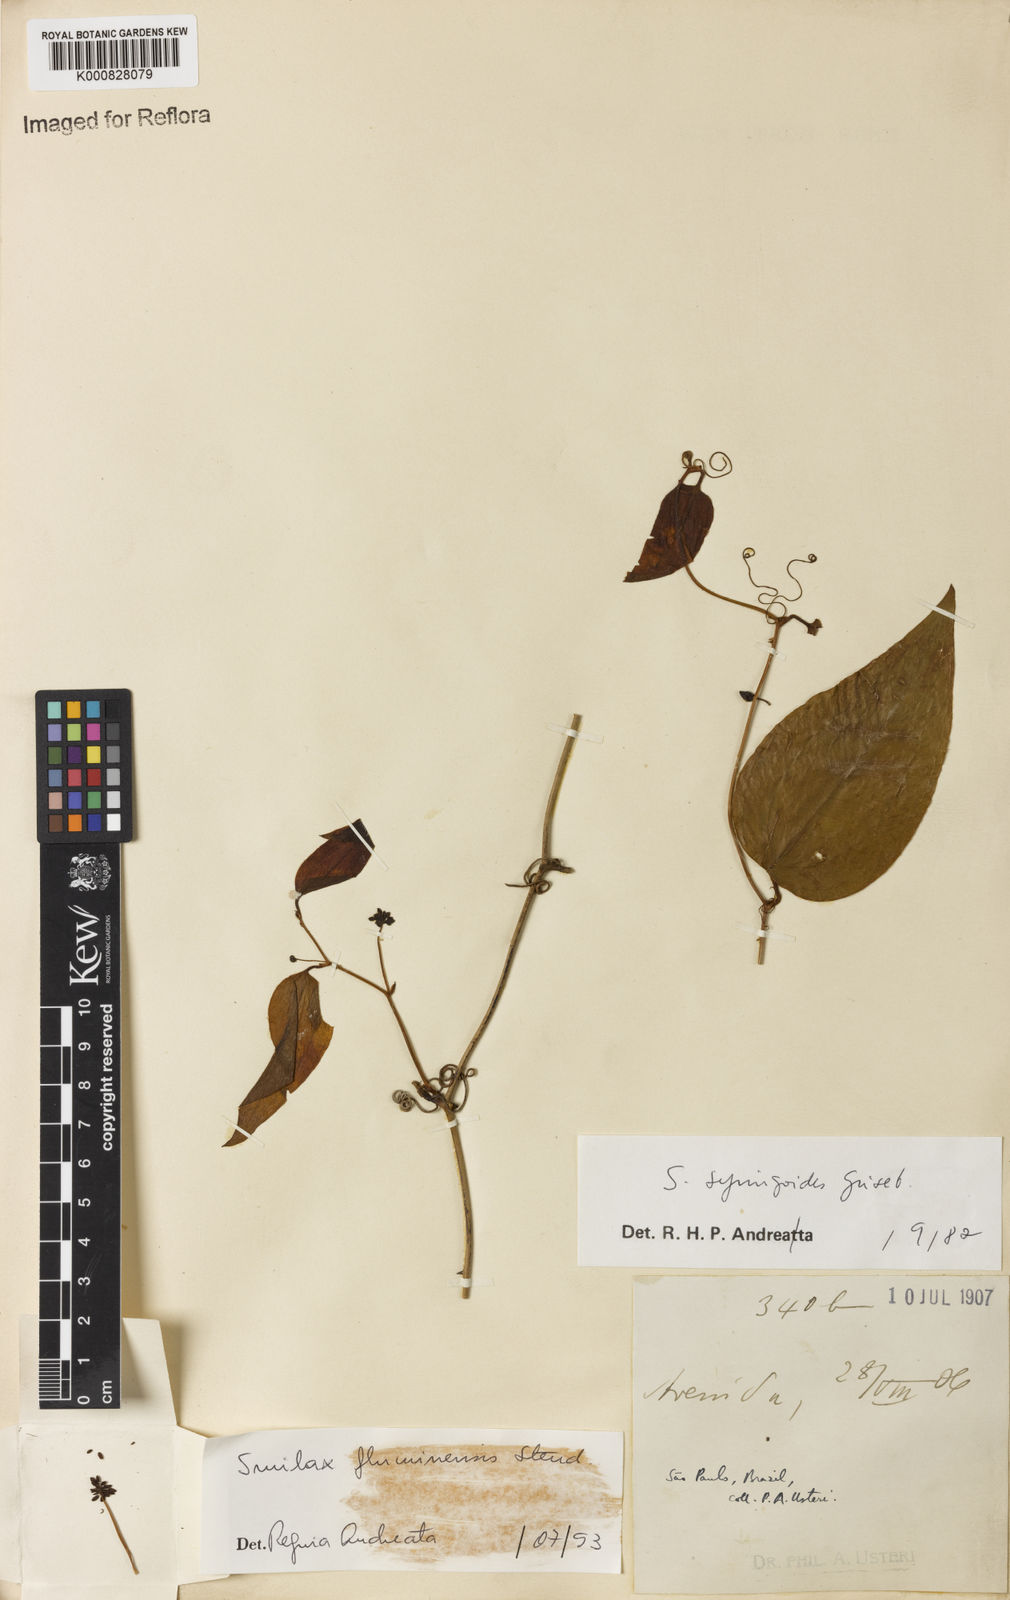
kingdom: Plantae
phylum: Tracheophyta
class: Liliopsida
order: Liliales
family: Smilacaceae
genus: Smilax
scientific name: Smilax fluminensis
